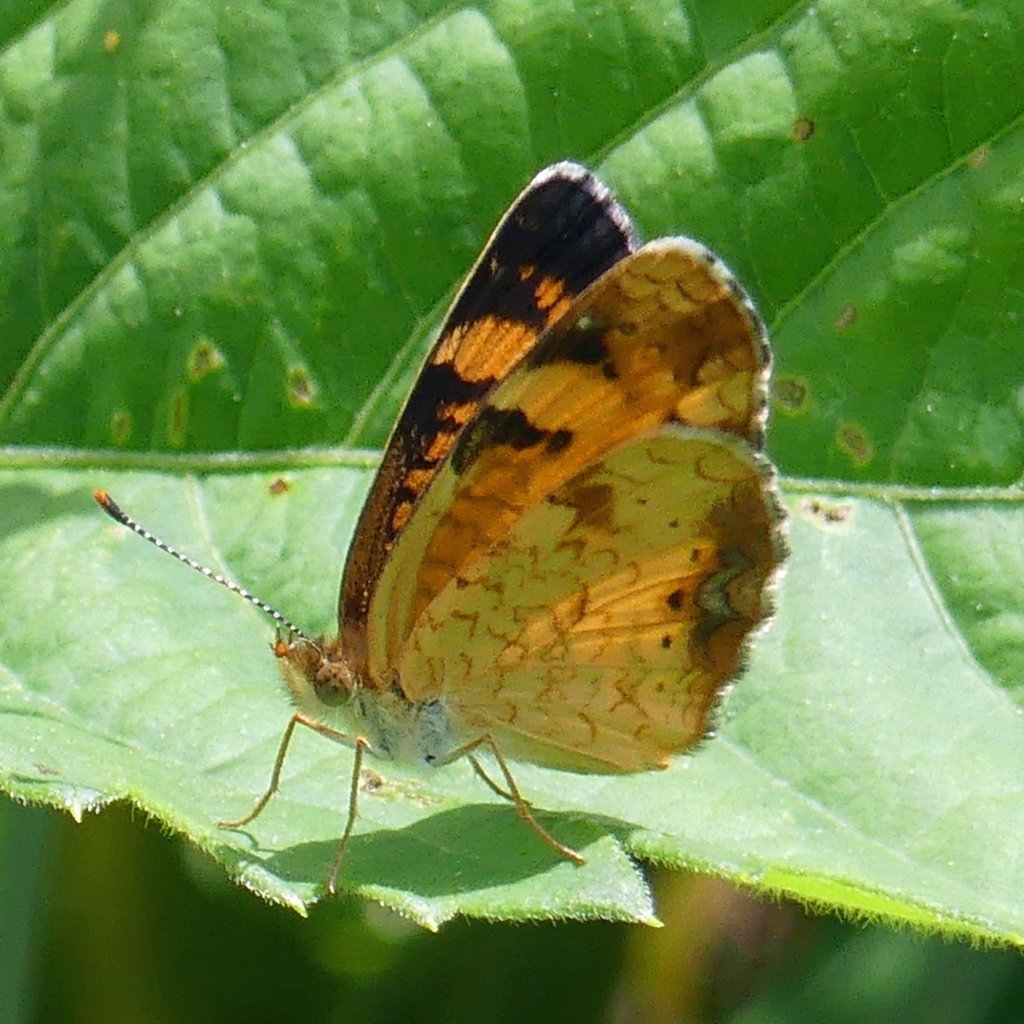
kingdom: Animalia
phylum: Arthropoda
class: Insecta
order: Lepidoptera
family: Nymphalidae
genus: Phyciodes
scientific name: Phyciodes tharos
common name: Northern Crescent
